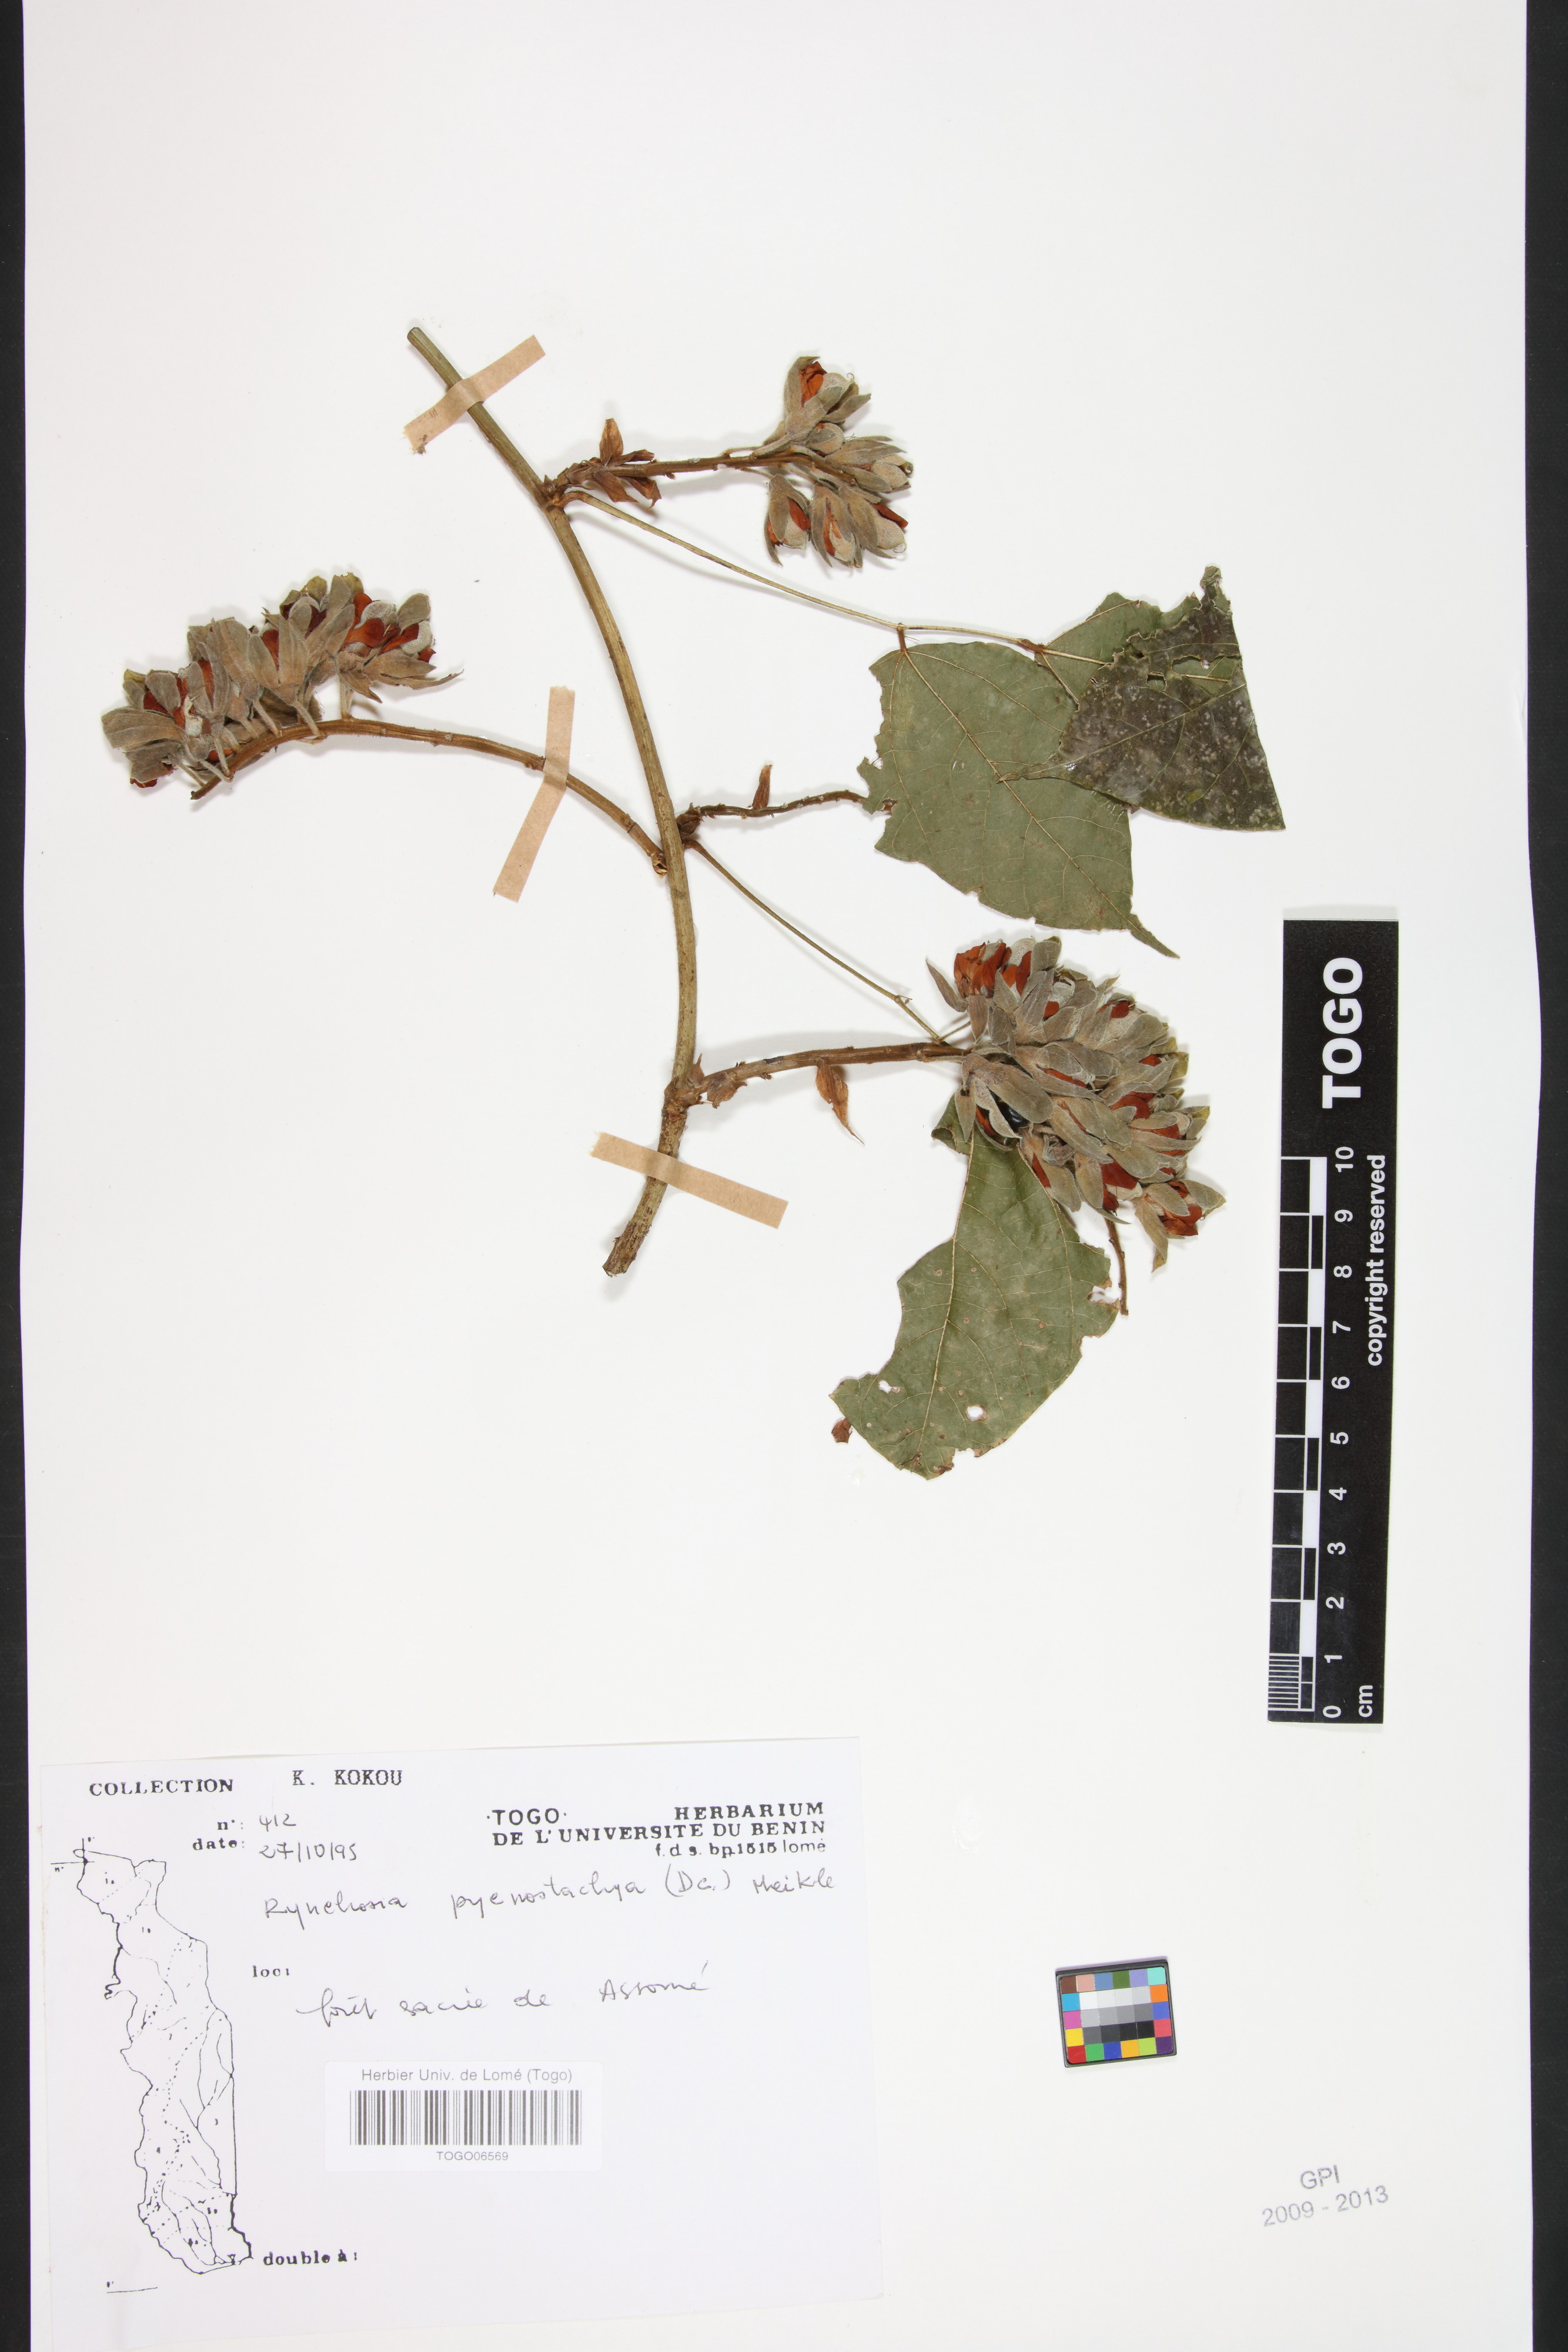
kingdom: Plantae
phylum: Tracheophyta
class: Magnoliopsida
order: Fabales
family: Fabaceae
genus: Rhynchosia
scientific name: Rhynchosia pycnostachya
